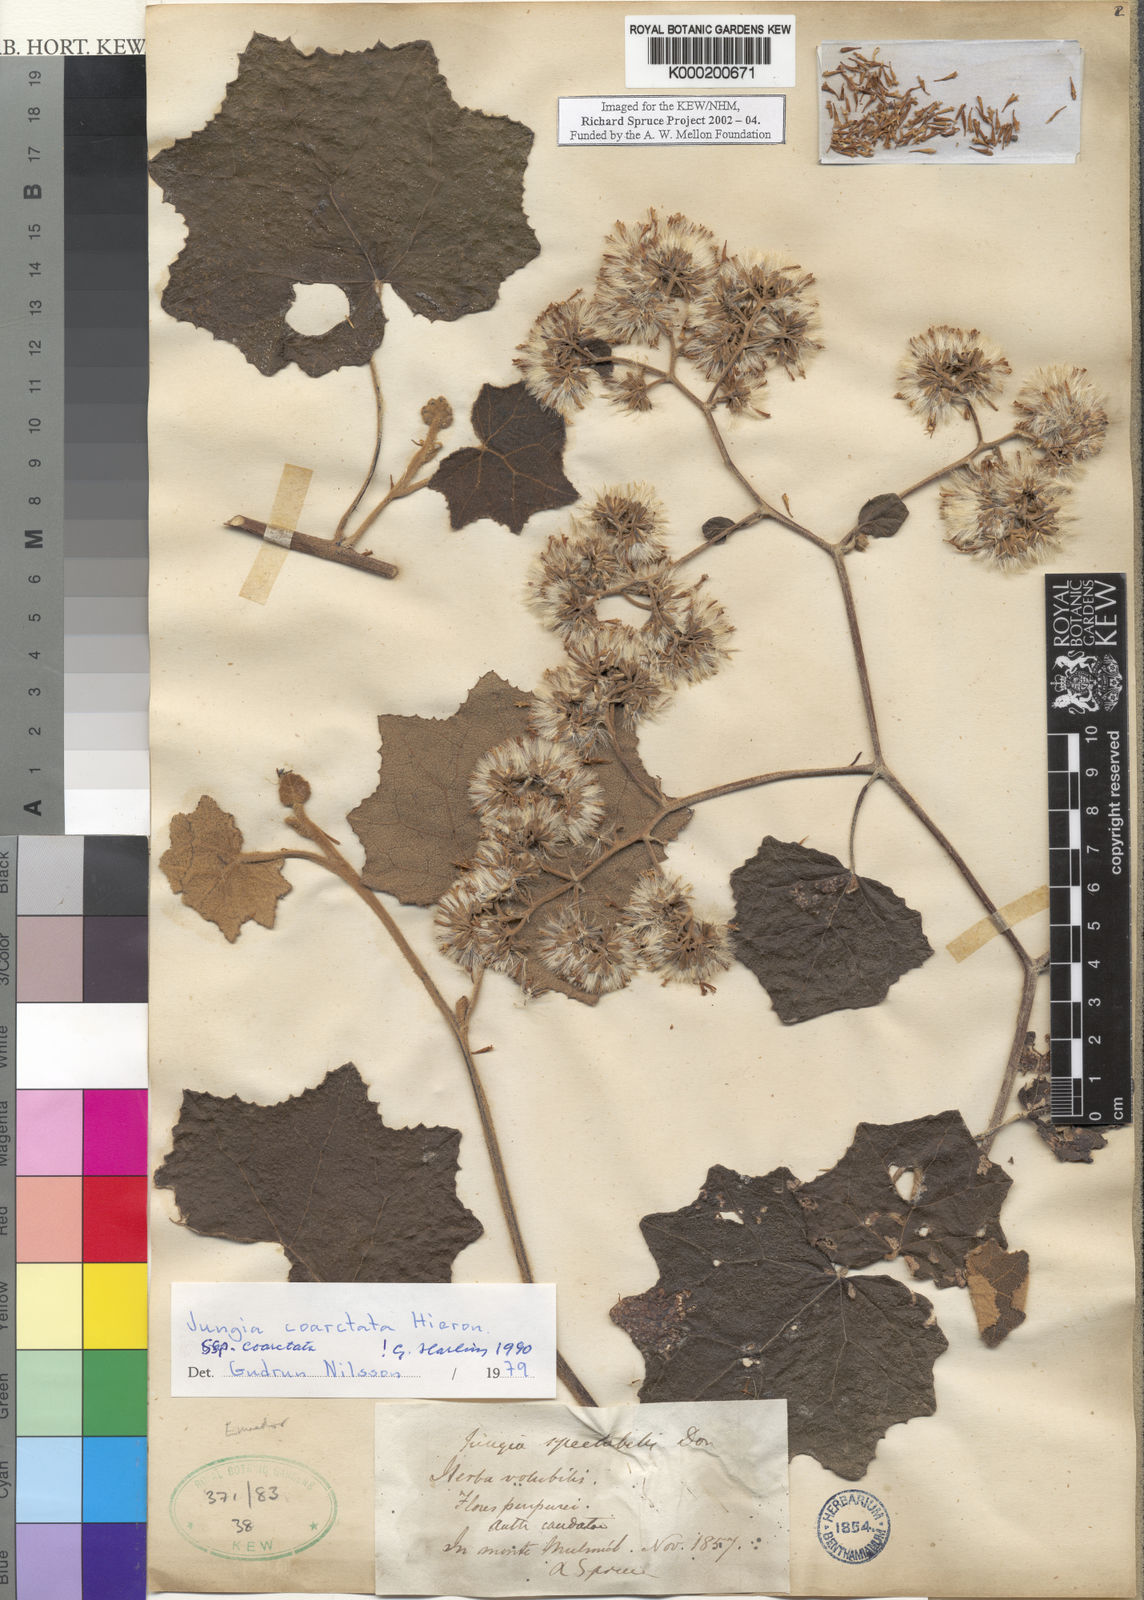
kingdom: Plantae
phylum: Tracheophyta
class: Magnoliopsida
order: Asterales
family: Asteraceae
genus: Jungia
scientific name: Jungia coarctata
